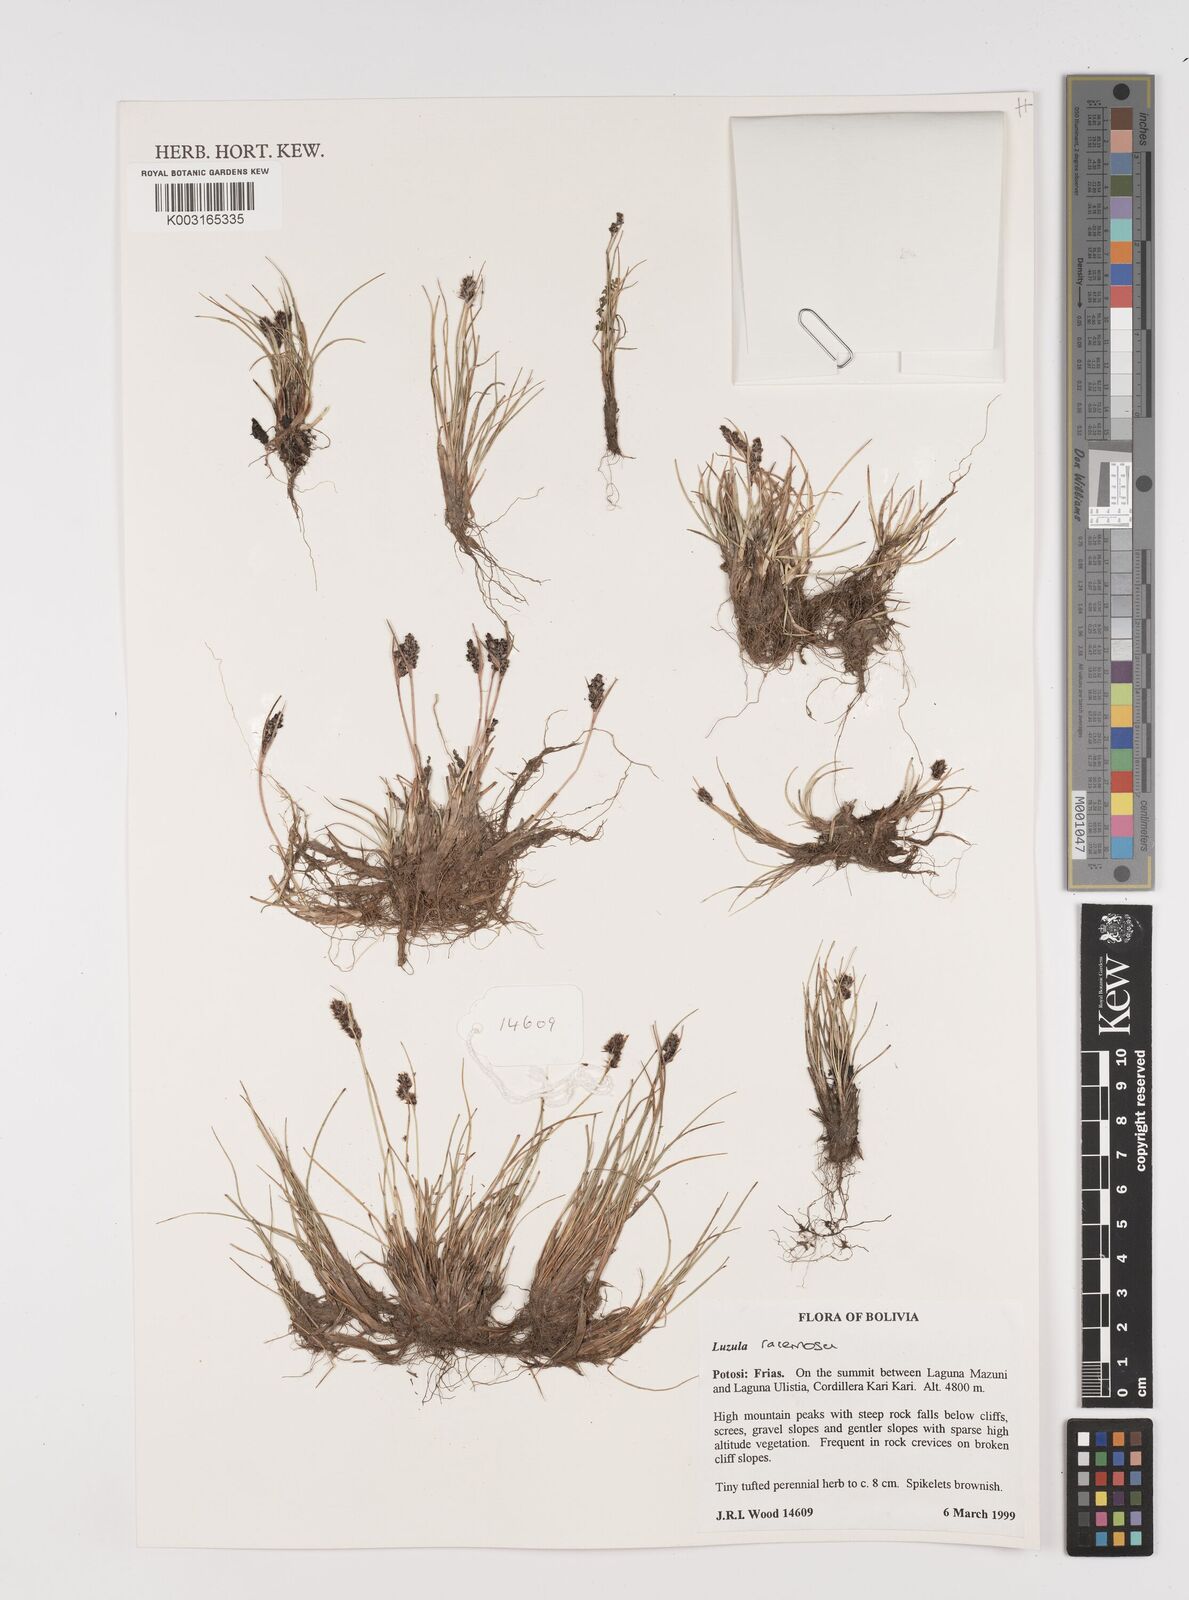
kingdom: Plantae
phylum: Tracheophyta
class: Liliopsida
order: Poales
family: Juncaceae
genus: Luzula
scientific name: Luzula racemosa
